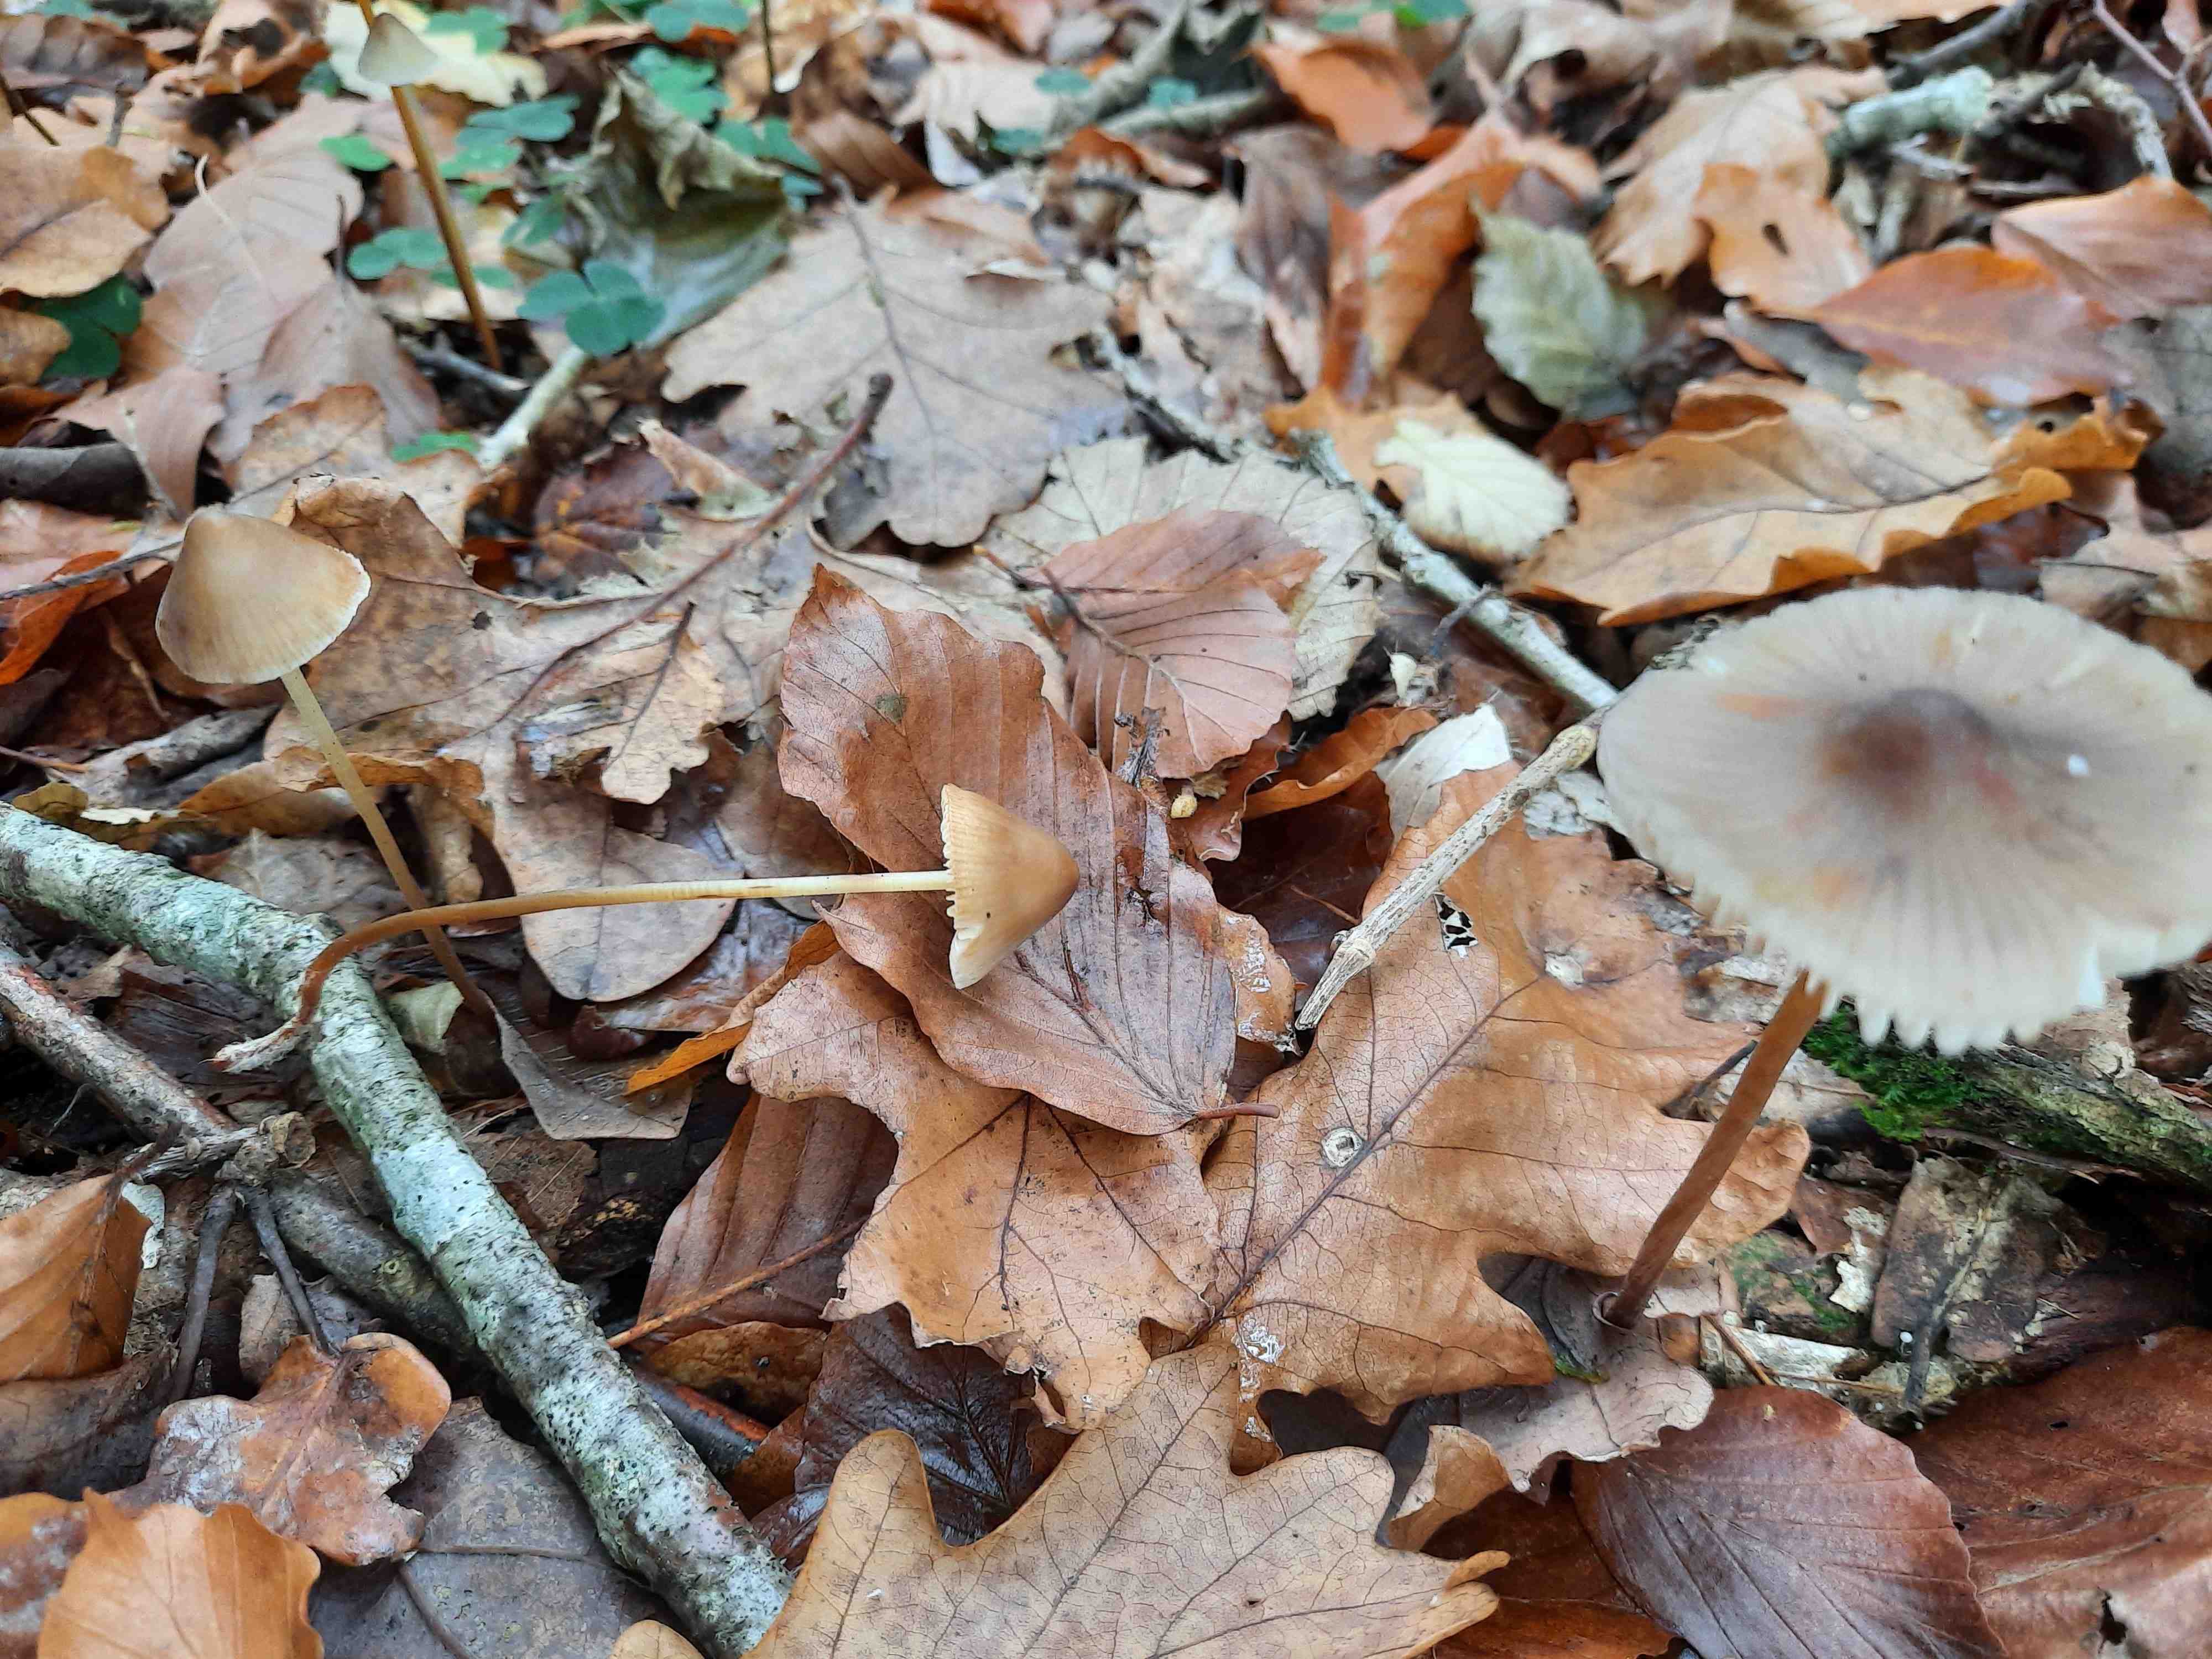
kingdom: Fungi
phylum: Basidiomycota
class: Agaricomycetes
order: Agaricales
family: Mycenaceae
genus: Mycena
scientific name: Mycena crocata
